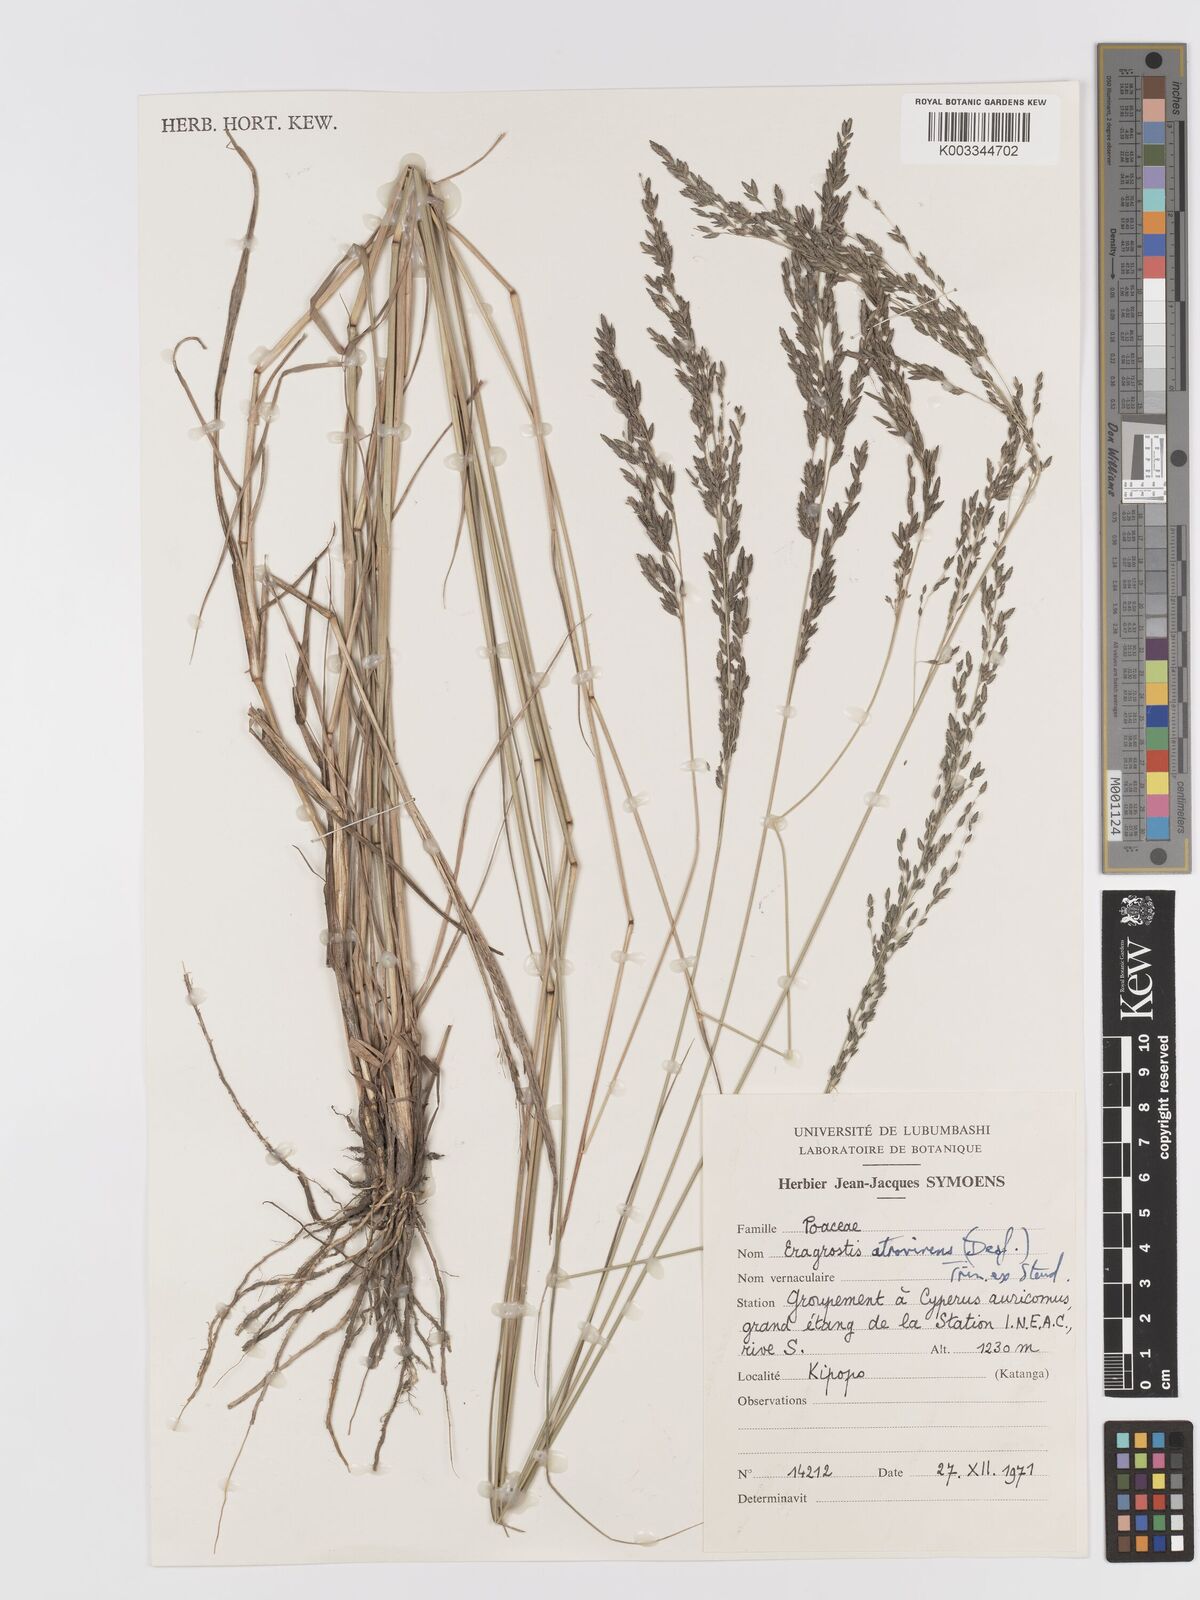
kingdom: Plantae
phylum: Tracheophyta
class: Liliopsida
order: Poales
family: Poaceae
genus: Eragrostis
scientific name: Eragrostis atrovirens
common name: Thalia lovegrass
